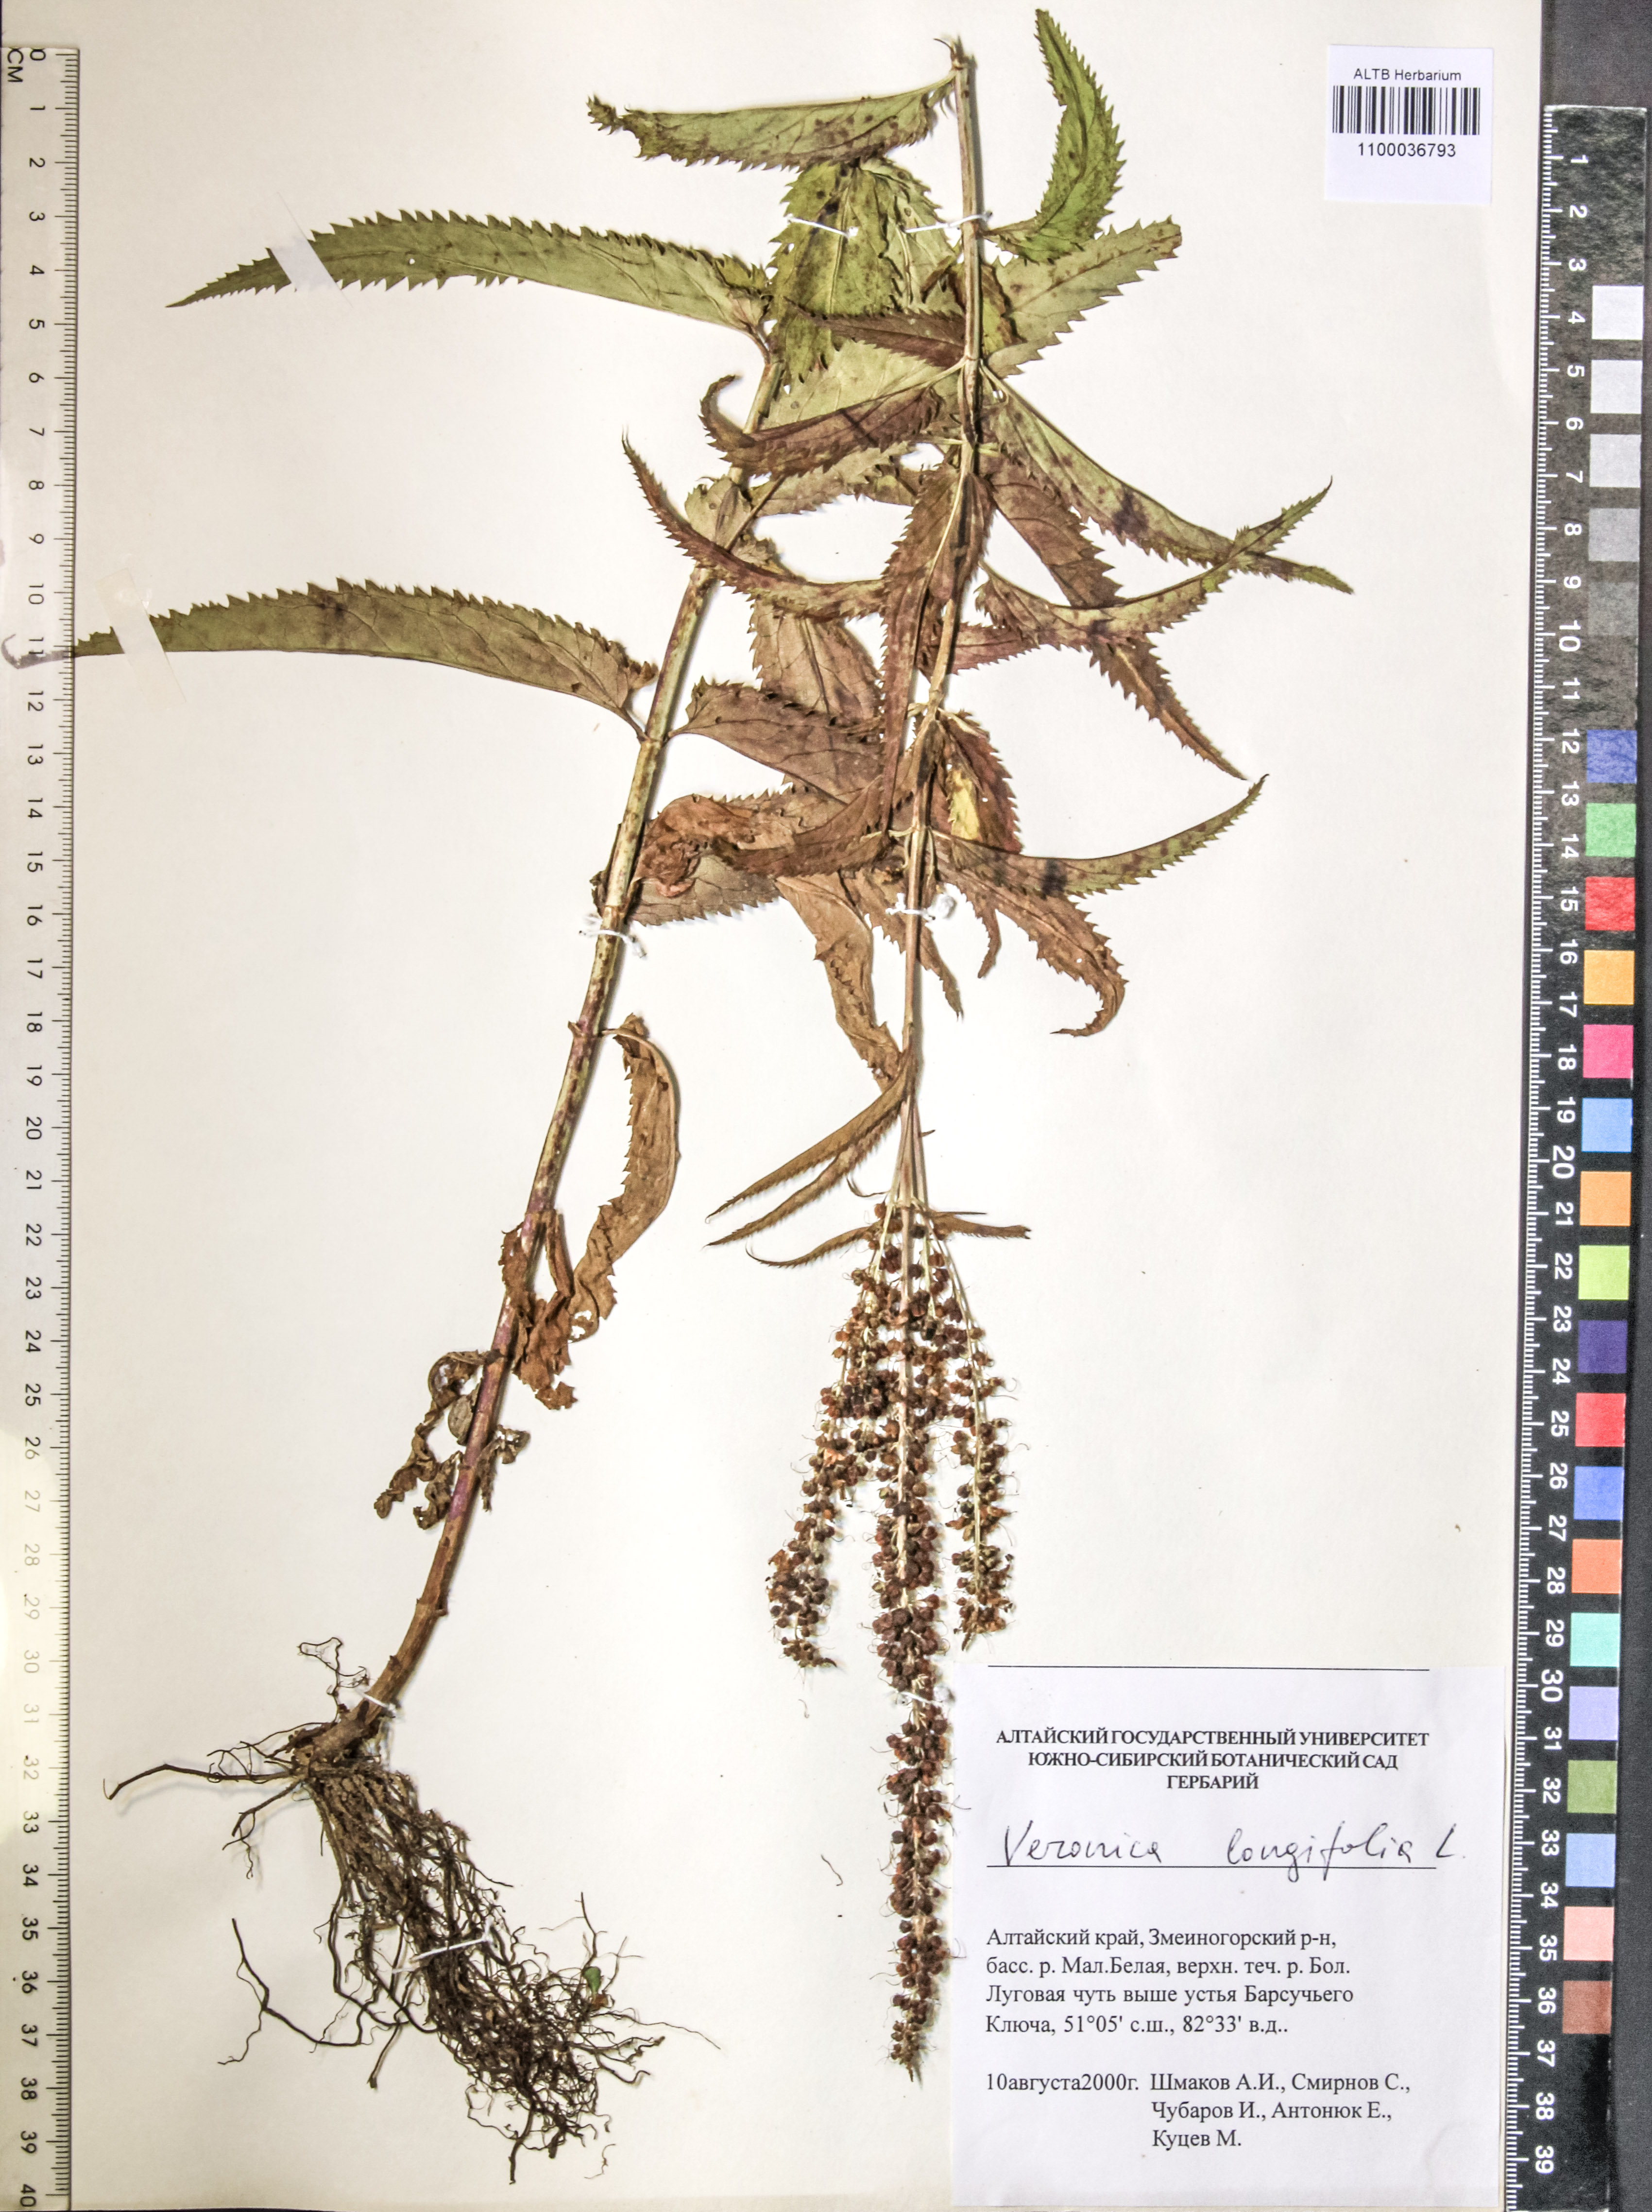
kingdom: Plantae
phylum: Tracheophyta
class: Magnoliopsida
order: Lamiales
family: Plantaginaceae
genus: Veronica
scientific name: Veronica longifolia
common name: Garden speedwell
